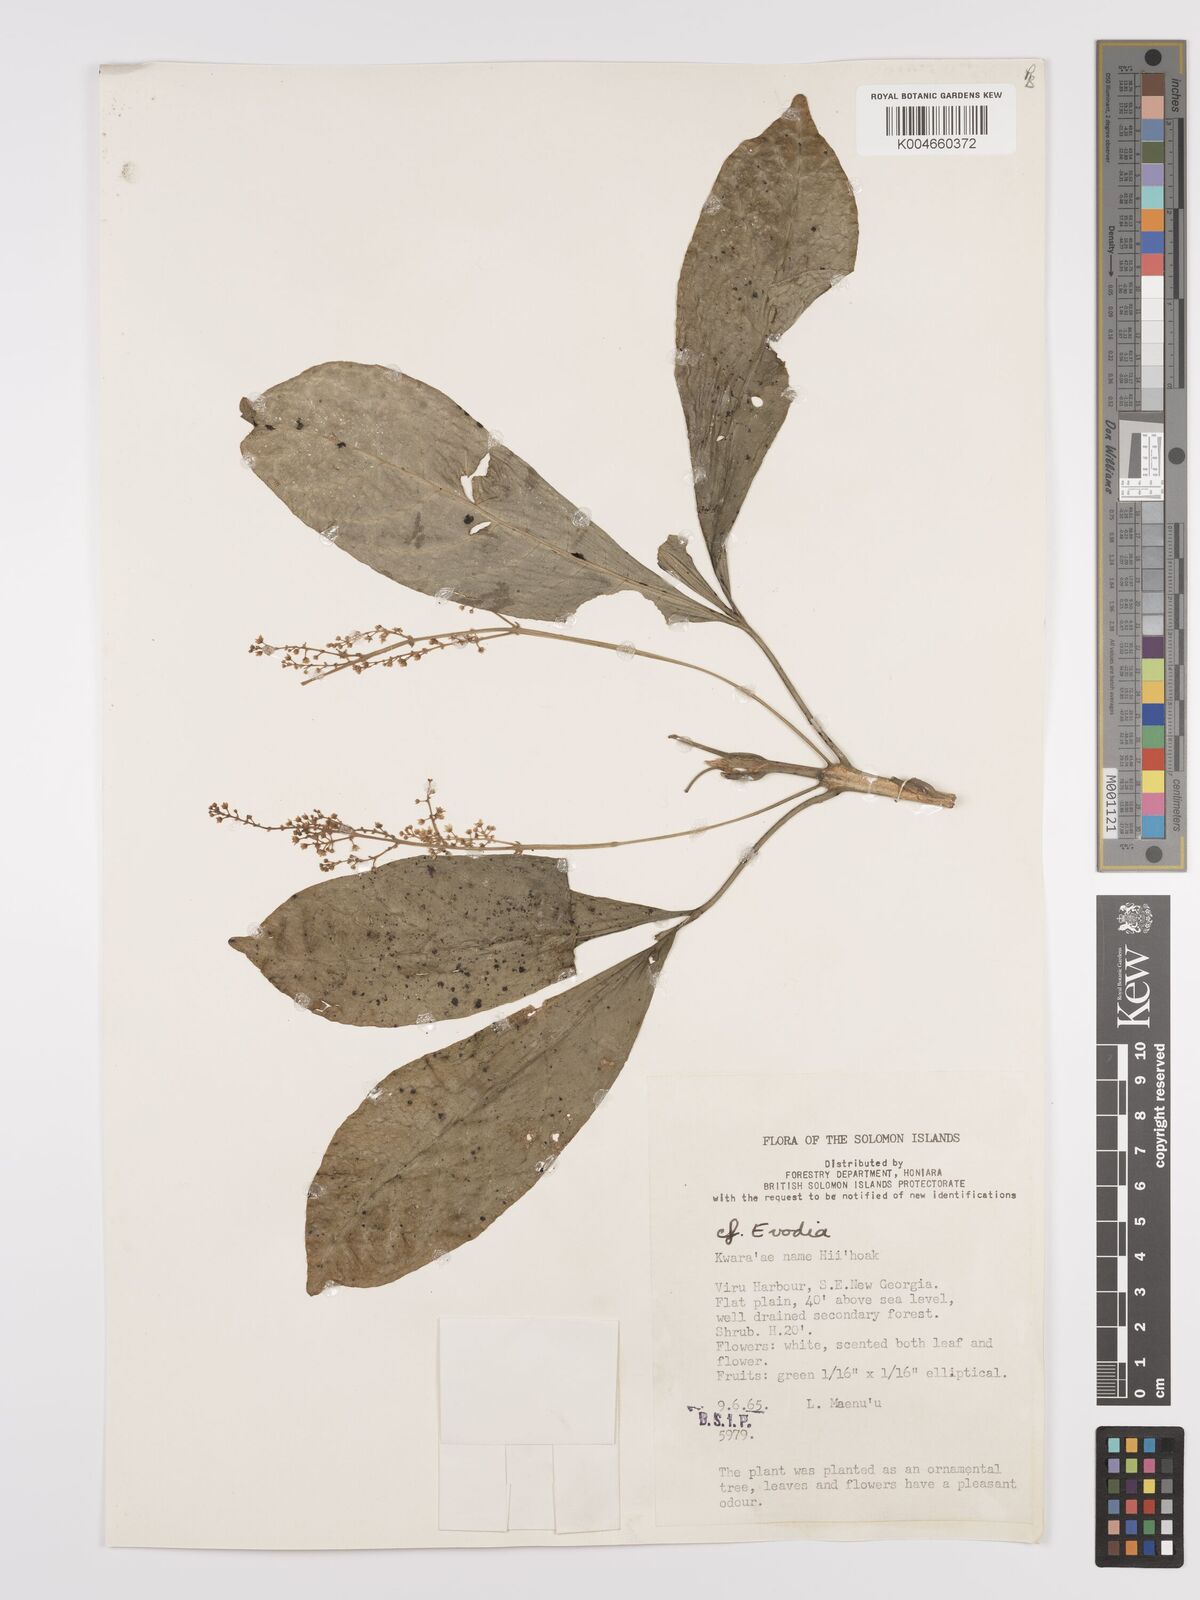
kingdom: Plantae
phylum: Tracheophyta
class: Magnoliopsida
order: Sapindales
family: Rutaceae
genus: Euodia
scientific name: Euodia
